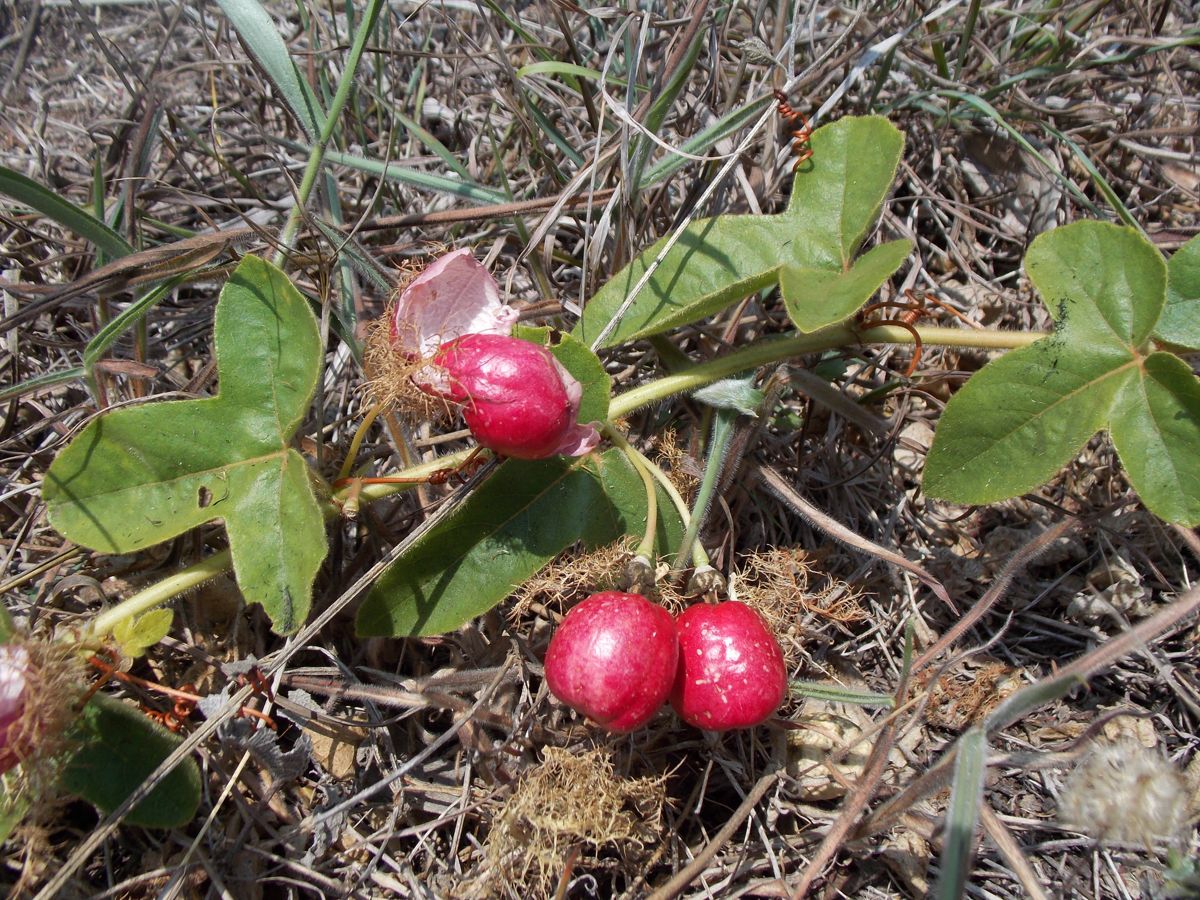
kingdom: Plantae
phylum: Tracheophyta
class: Magnoliopsida
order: Malpighiales
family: Passifloraceae
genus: Passiflora
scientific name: Passiflora foetida
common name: Fetid passionflower
